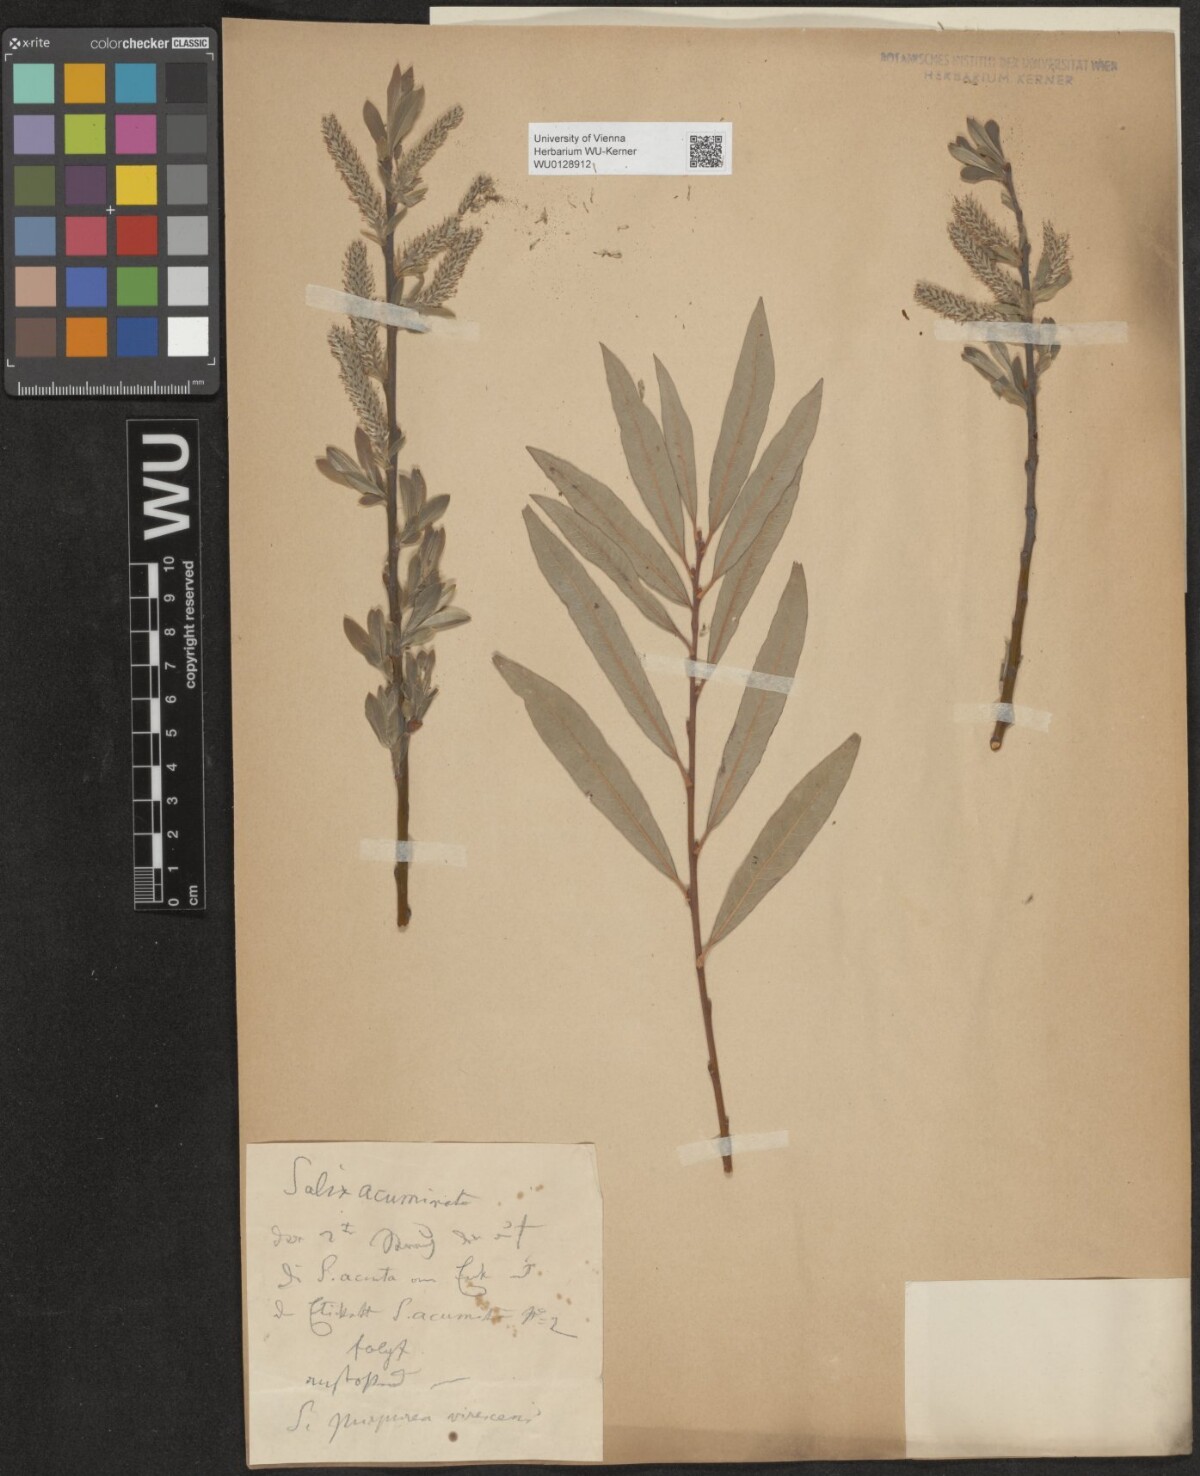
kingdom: Plantae
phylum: Tracheophyta
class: Magnoliopsida
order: Malpighiales
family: Salicaceae
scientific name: Salicaceae
